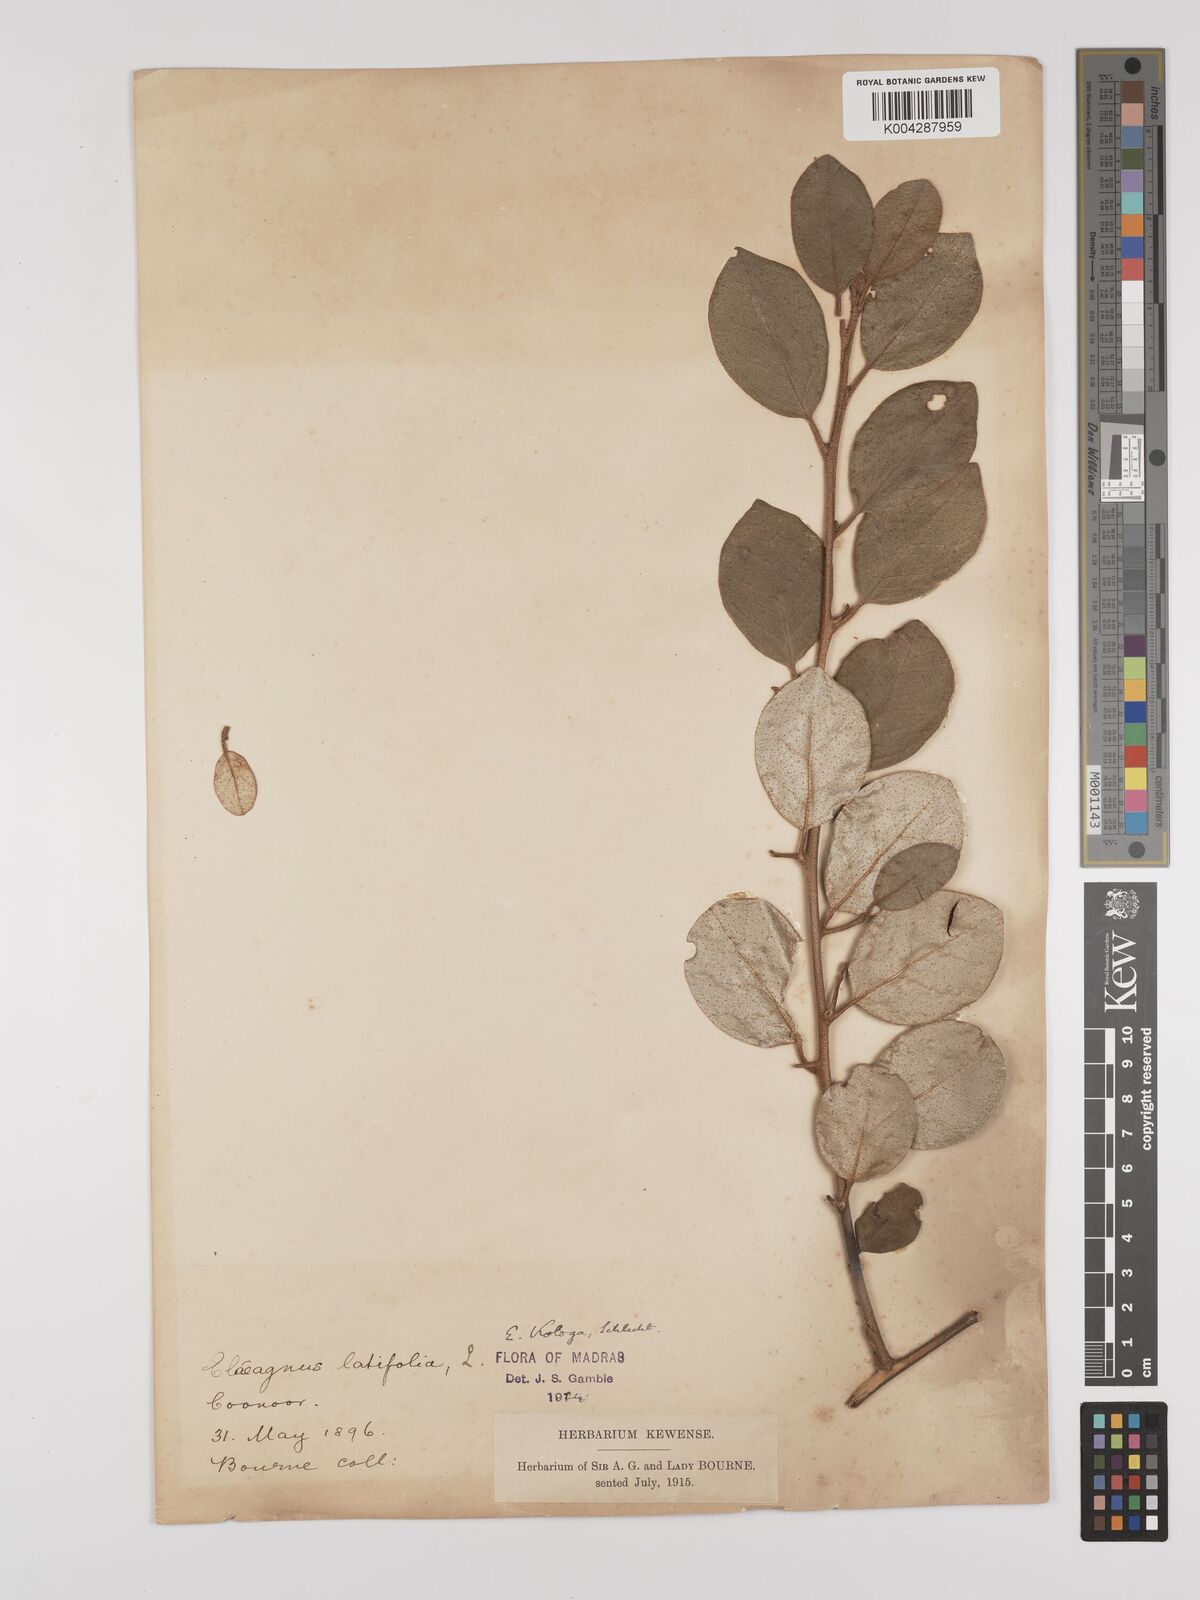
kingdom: Plantae
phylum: Tracheophyta
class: Magnoliopsida
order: Rosales
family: Elaeagnaceae
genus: Elaeagnus
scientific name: Elaeagnus latifolia
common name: Oleaster
